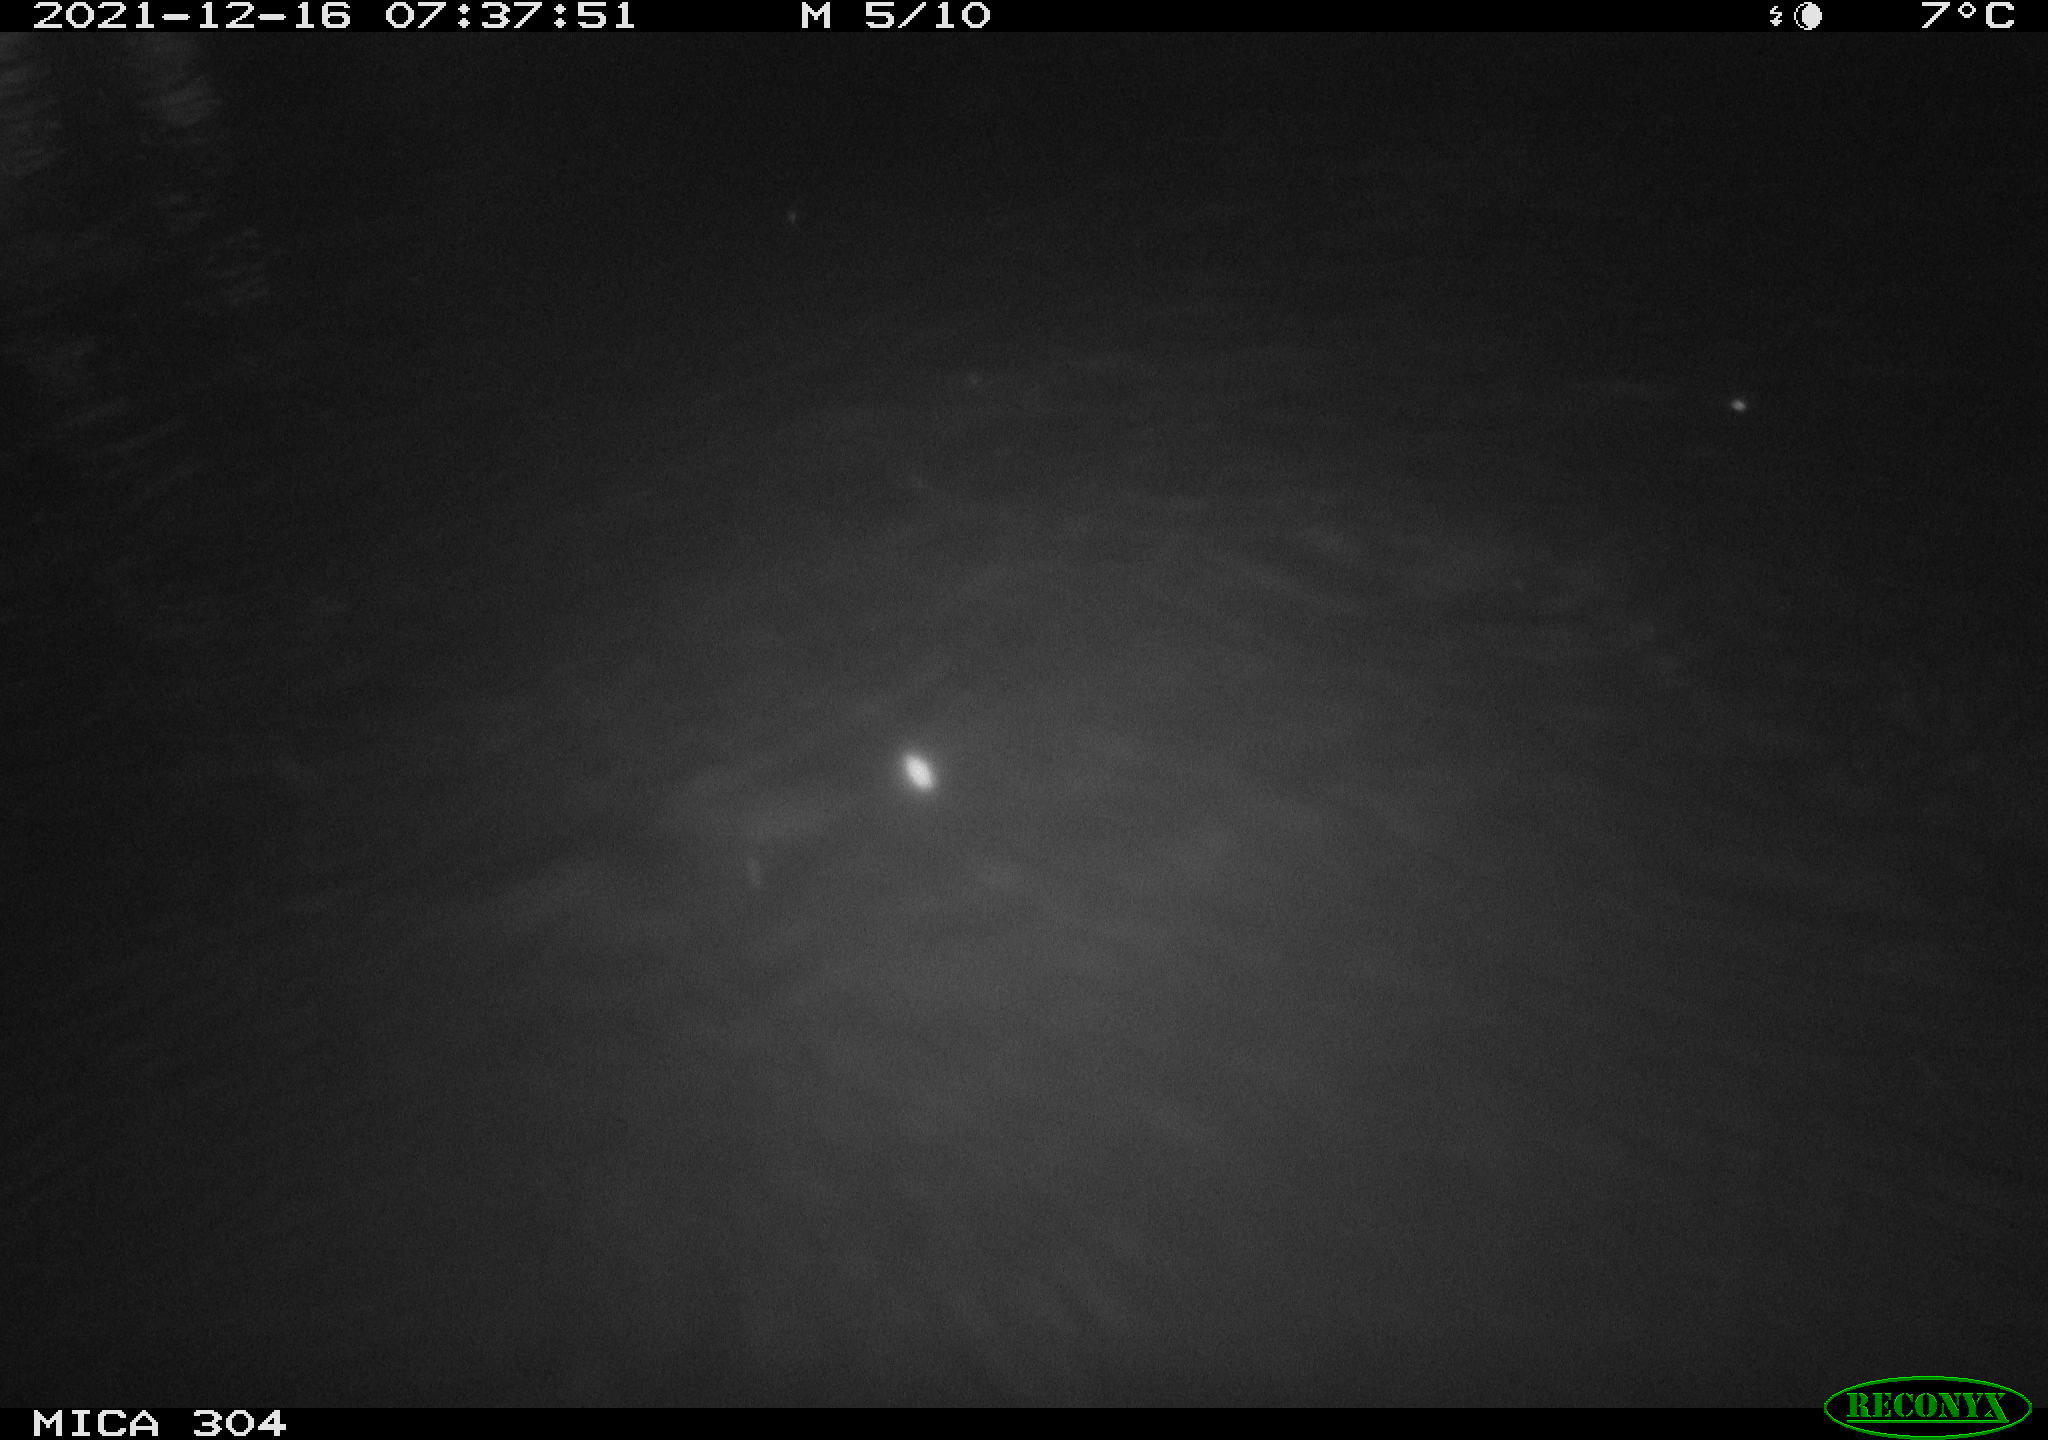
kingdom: Animalia
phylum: Chordata
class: Mammalia
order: Rodentia
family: Muridae
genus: Rattus
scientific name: Rattus norvegicus
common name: Brown rat
